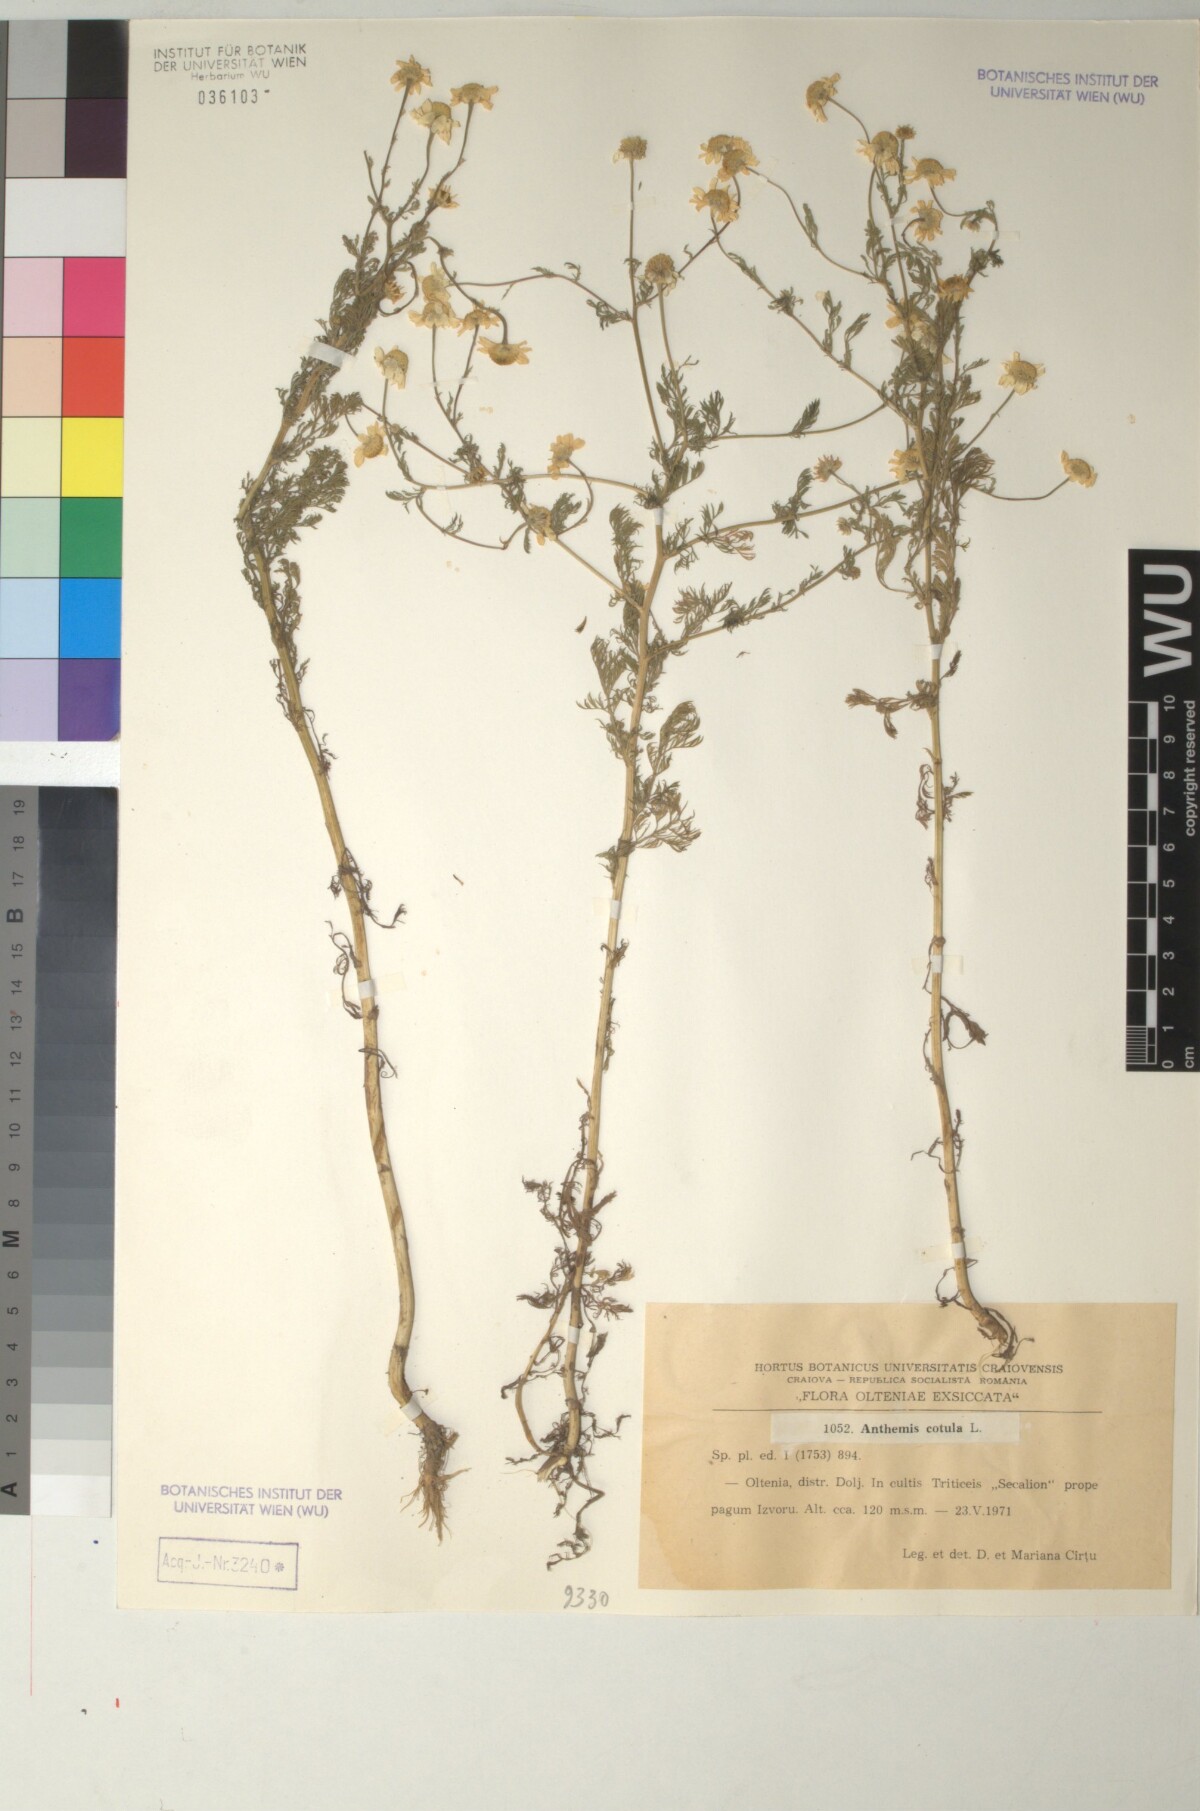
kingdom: Plantae
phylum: Tracheophyta
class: Magnoliopsida
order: Asterales
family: Asteraceae
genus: Anthemis
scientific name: Anthemis cotula
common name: Stinking chamomile
